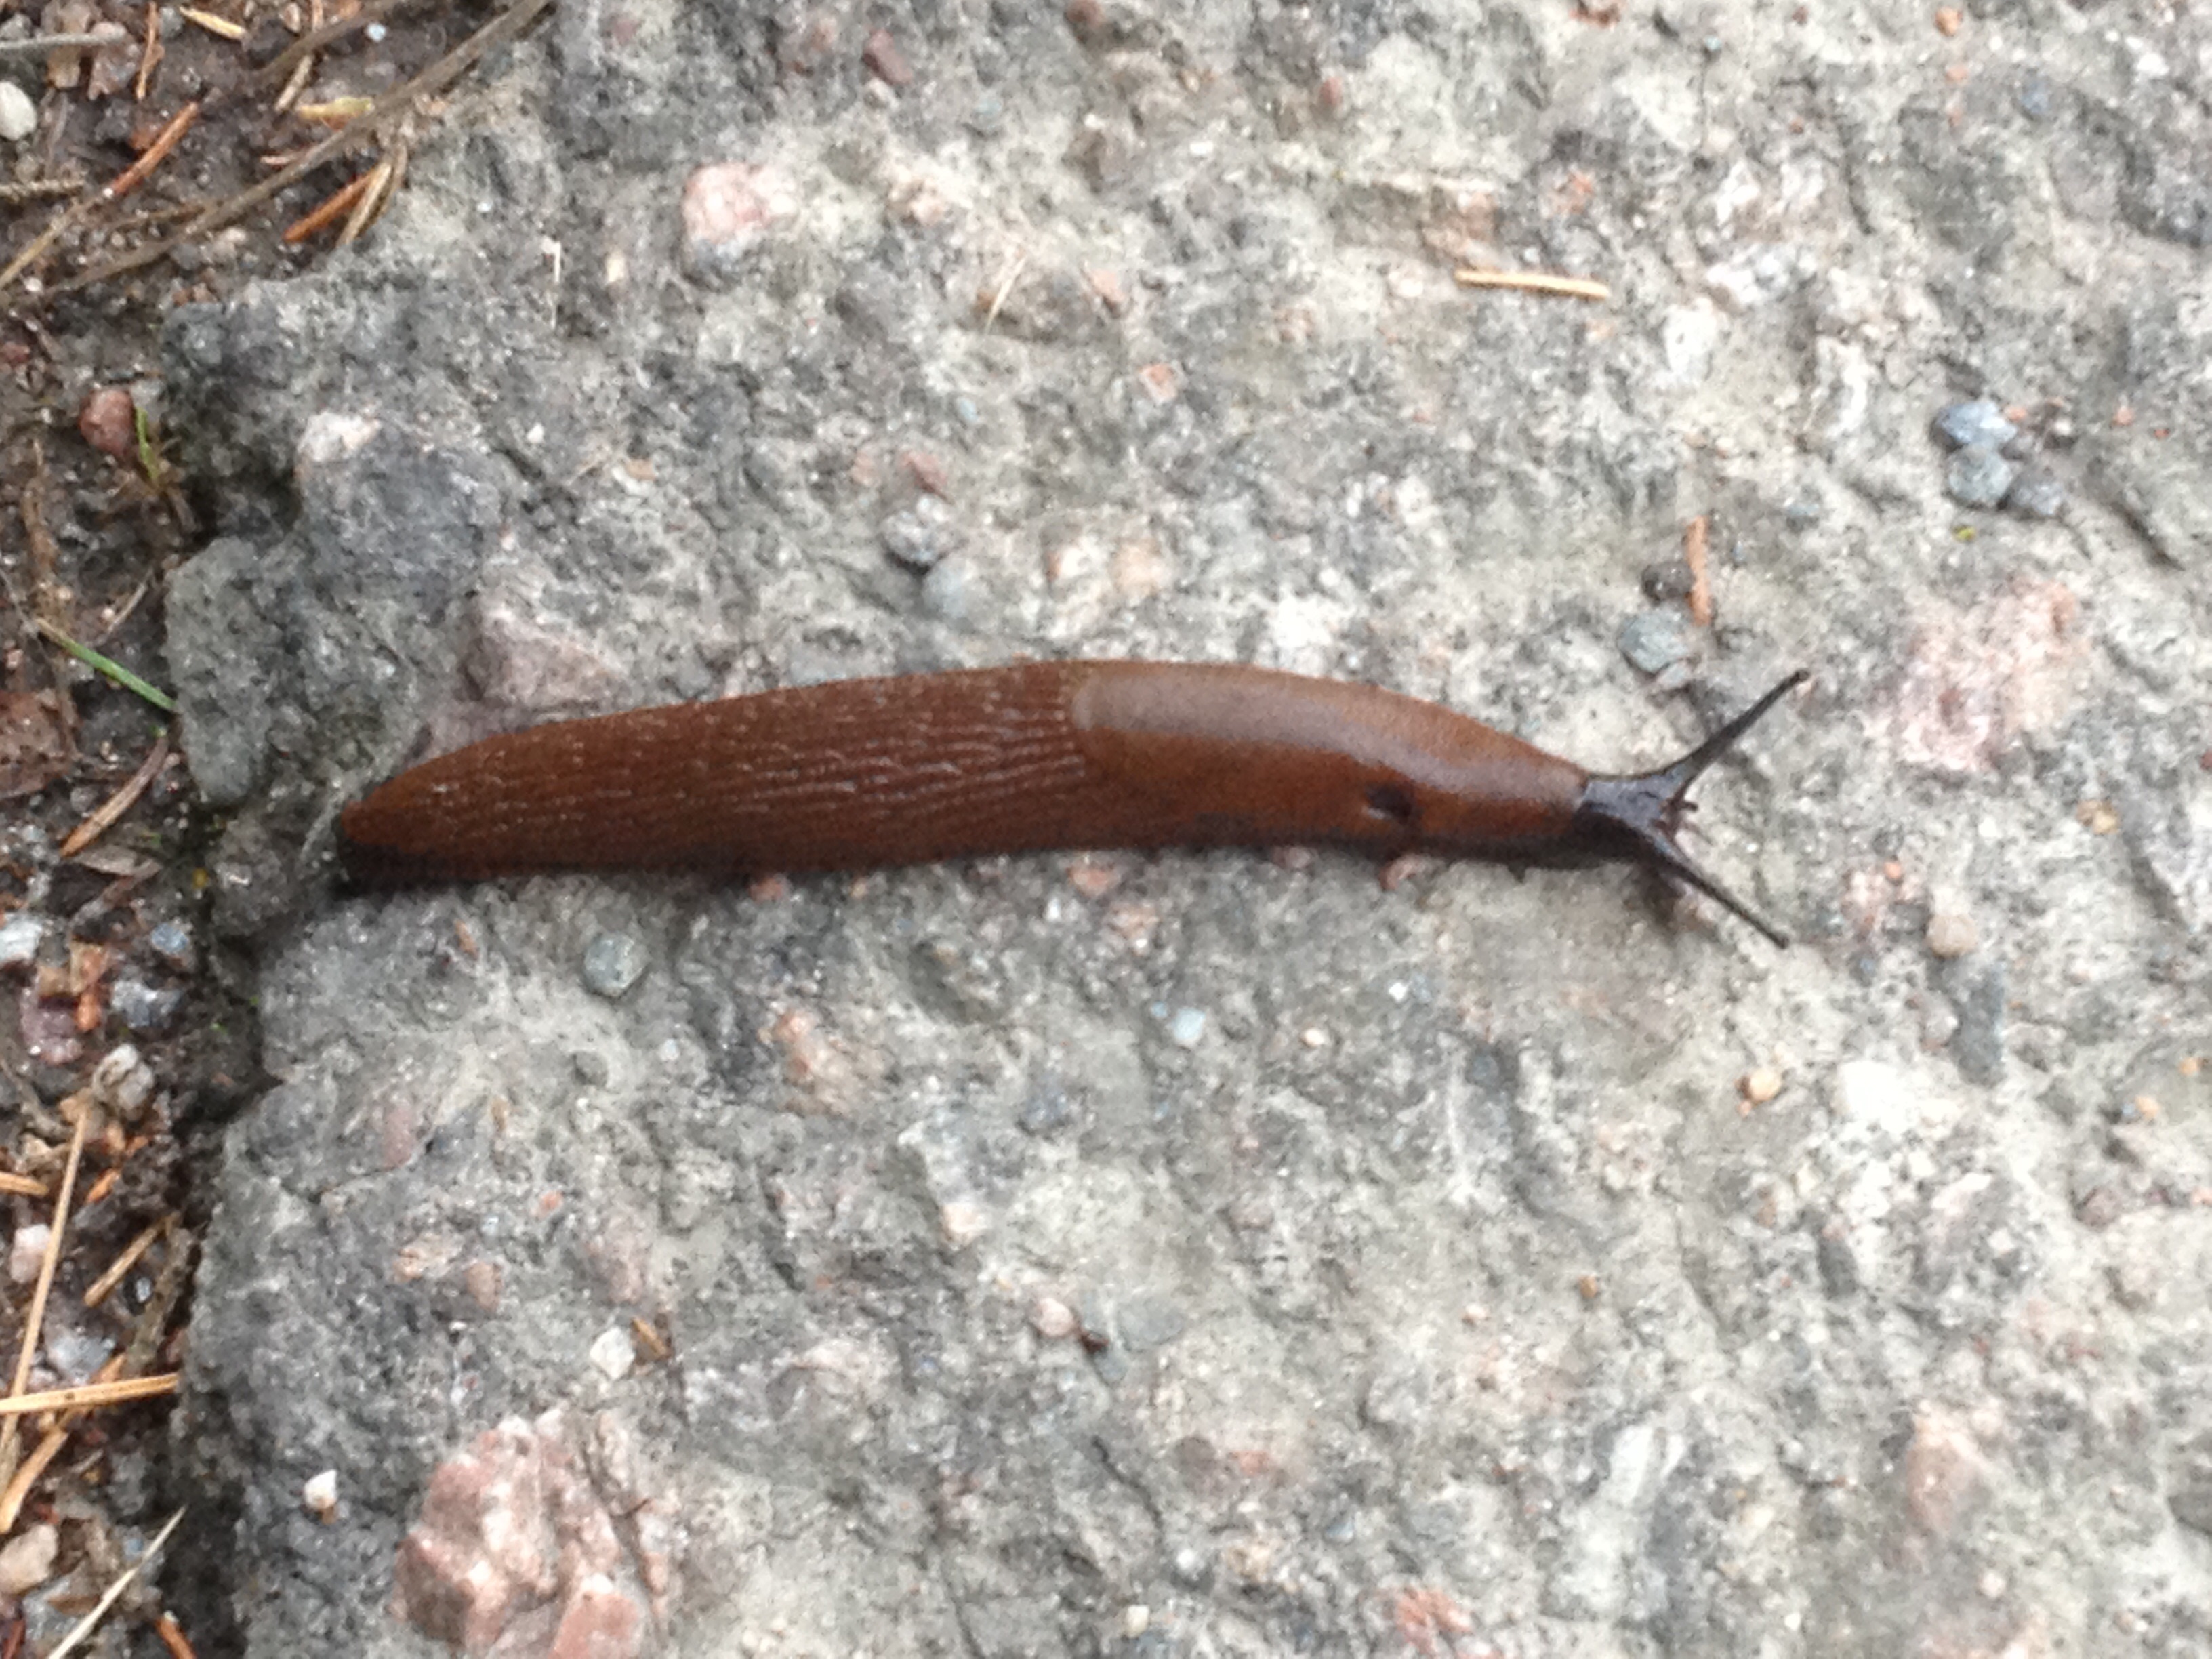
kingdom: Animalia
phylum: Mollusca
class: Gastropoda
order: Stylommatophora
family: Arionidae
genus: Arion
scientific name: Arion vulgaris
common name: Lusitanian slug
